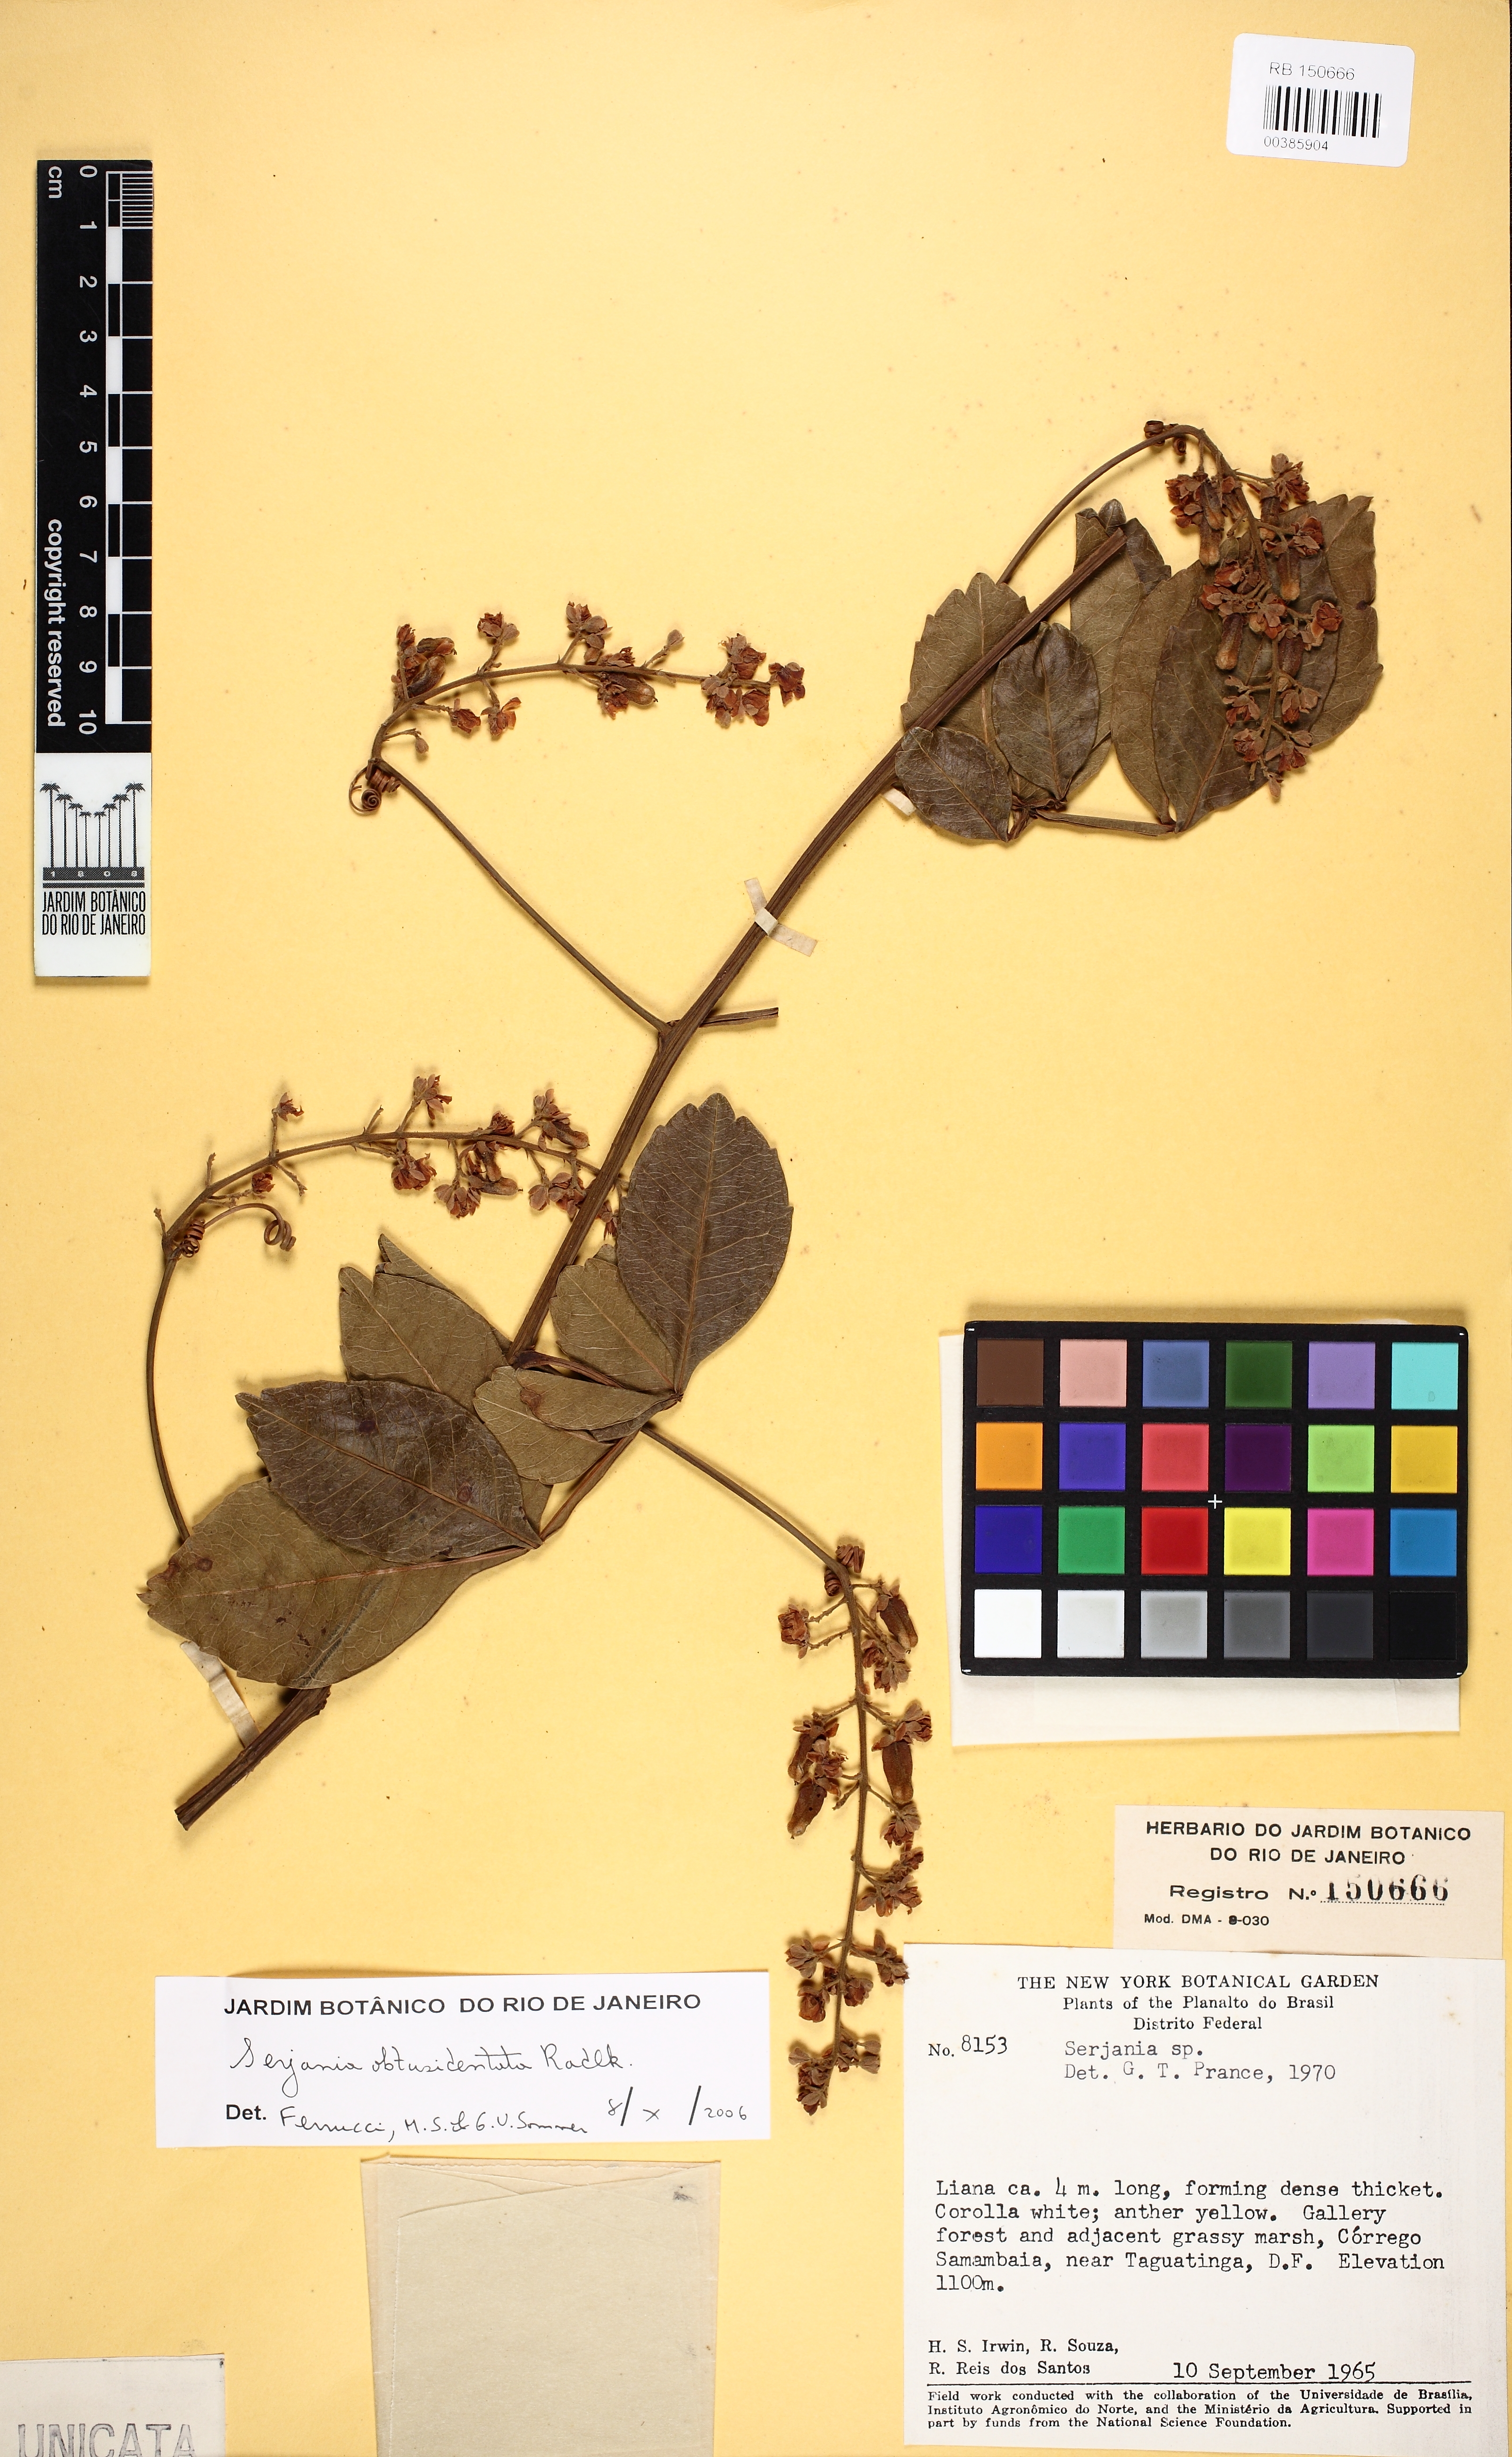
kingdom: Plantae
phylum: Tracheophyta
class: Magnoliopsida
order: Sapindales
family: Sapindaceae
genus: Serjania
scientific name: Serjania obtusidentata
